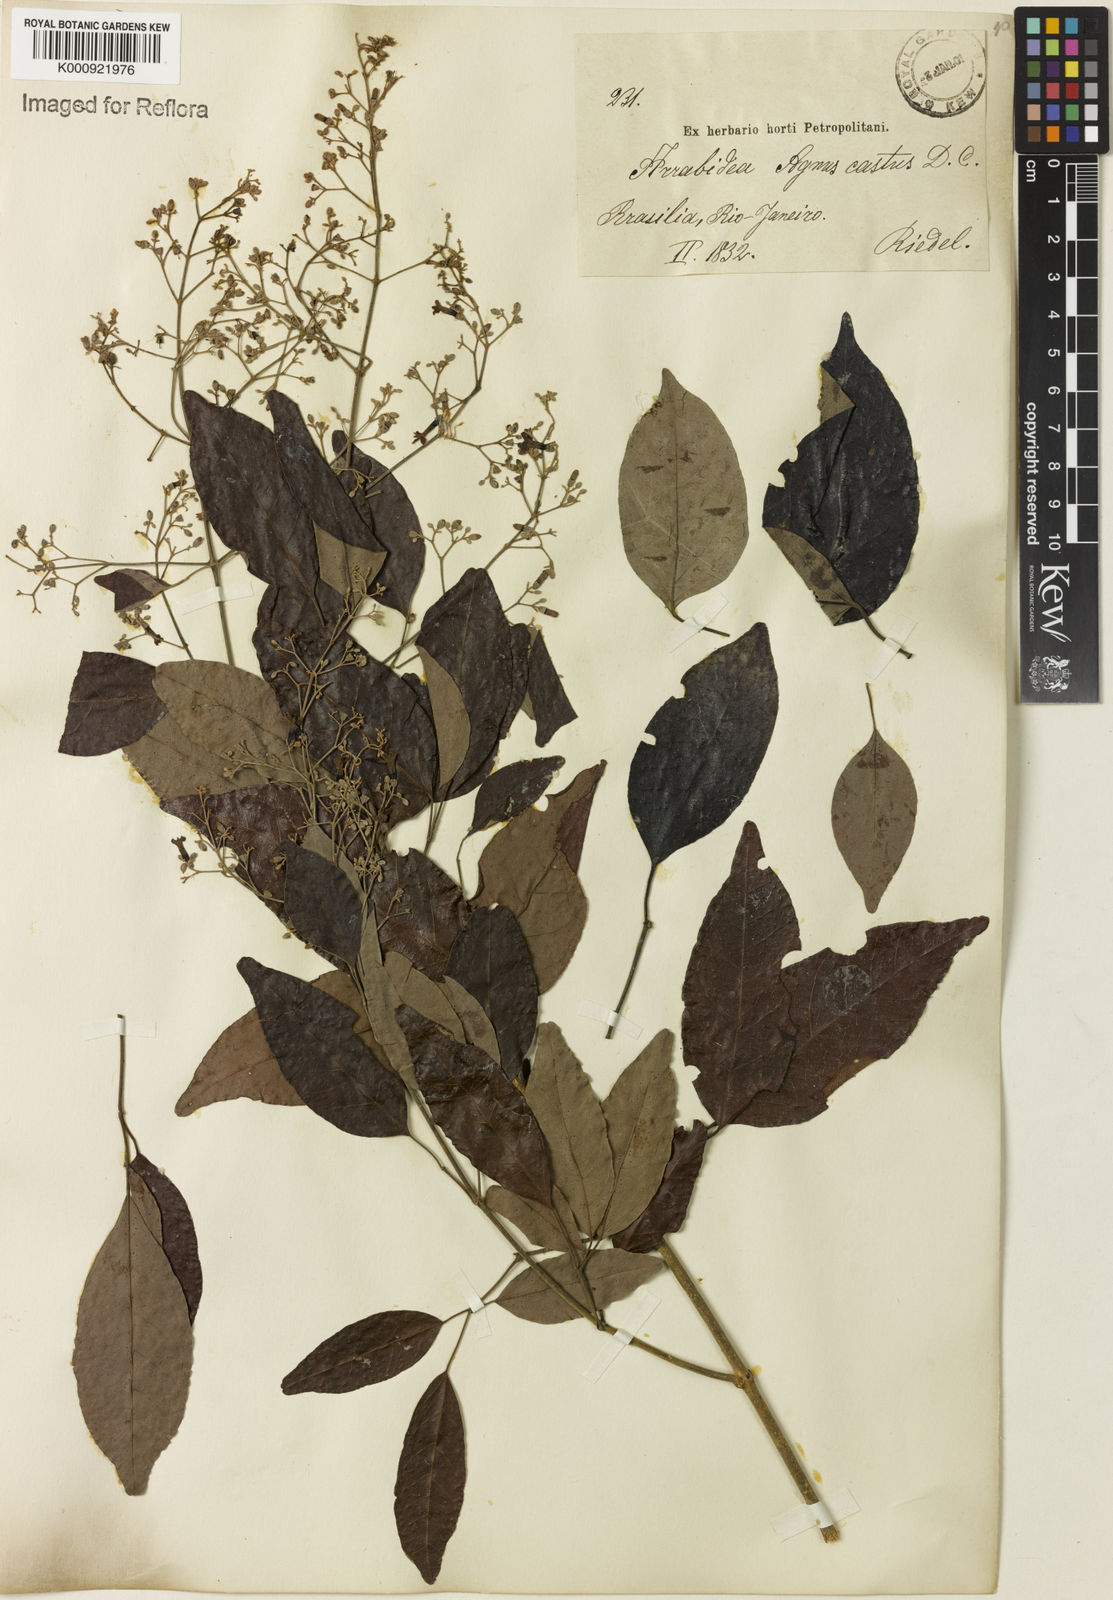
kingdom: Plantae
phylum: Tracheophyta
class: Magnoliopsida
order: Lamiales
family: Bignoniaceae
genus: Fridericia
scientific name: Fridericia rego
